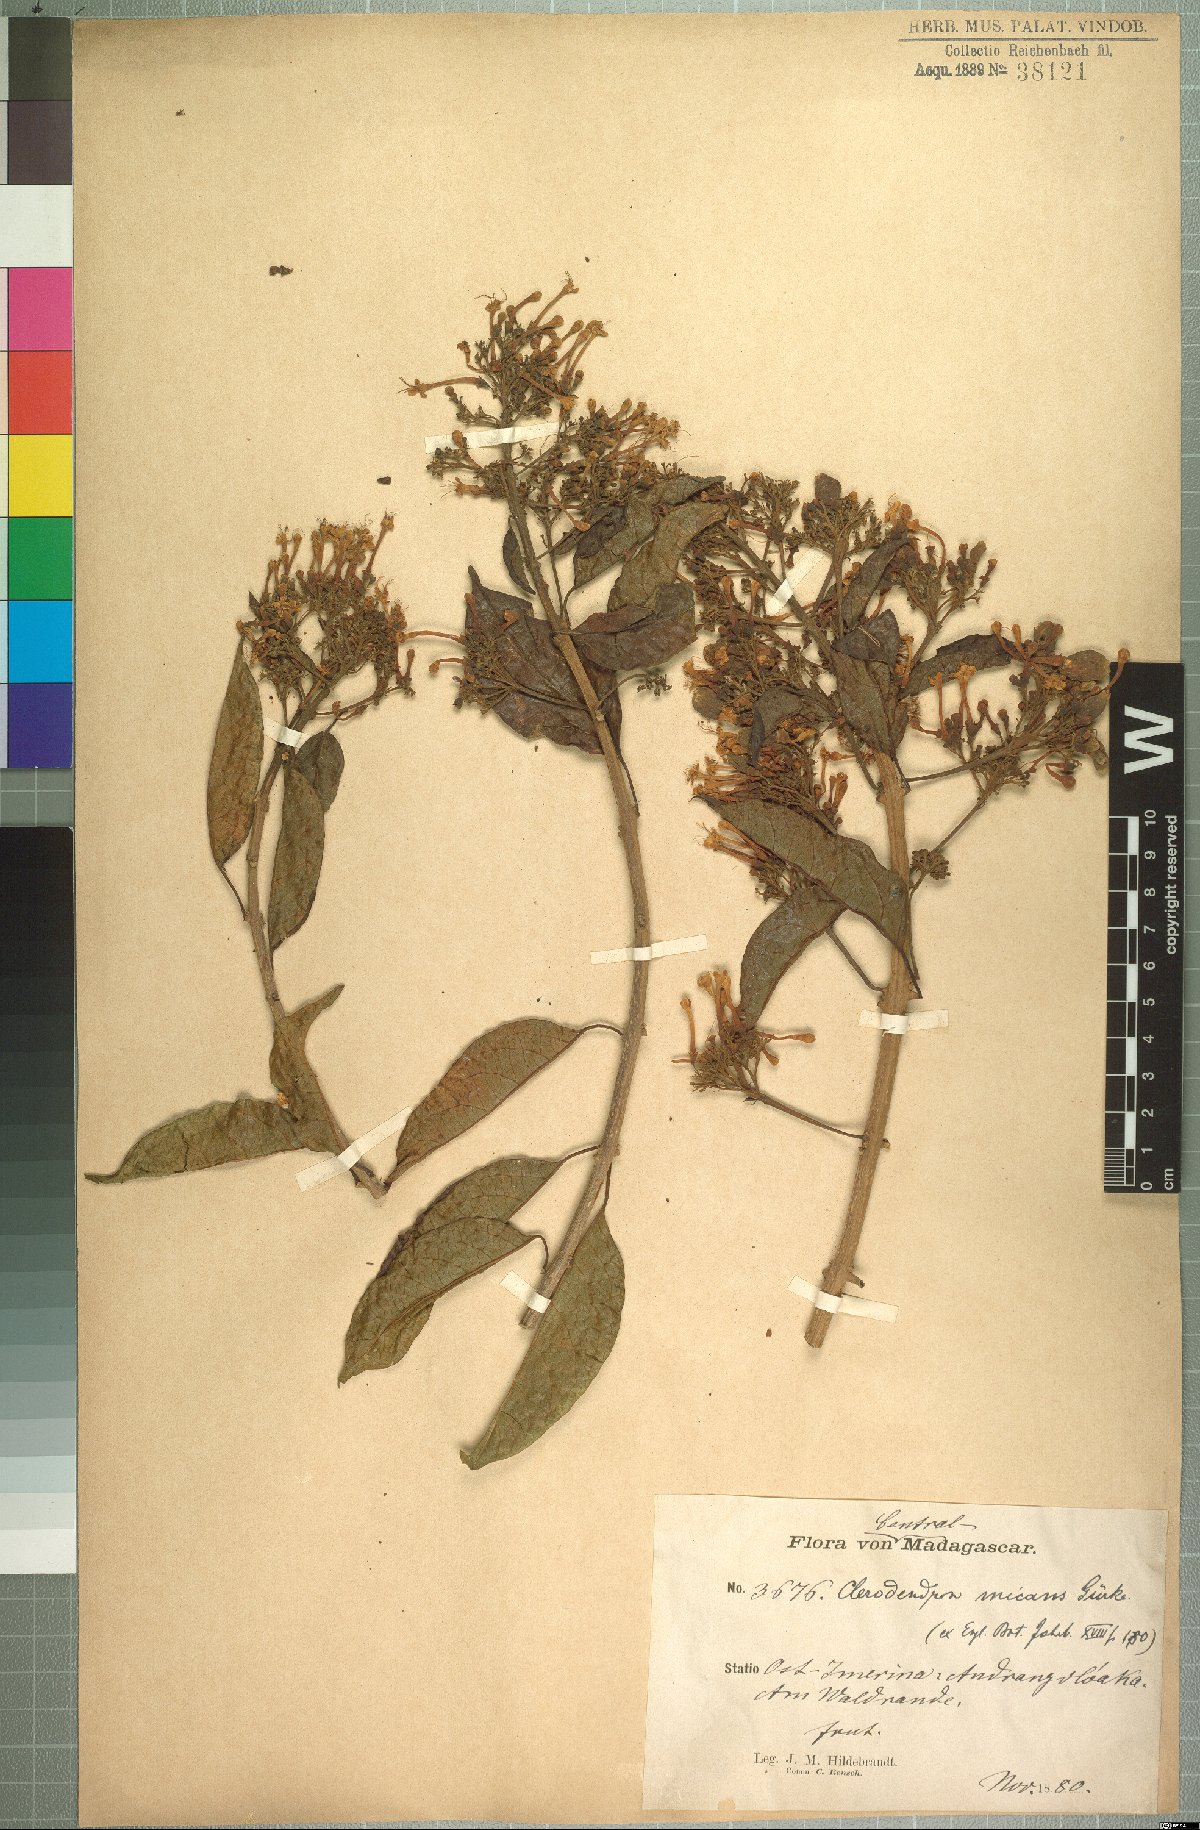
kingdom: Plantae
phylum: Tracheophyta
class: Magnoliopsida
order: Lamiales
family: Lamiaceae
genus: Clerodendrum
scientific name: Clerodendrum micans
